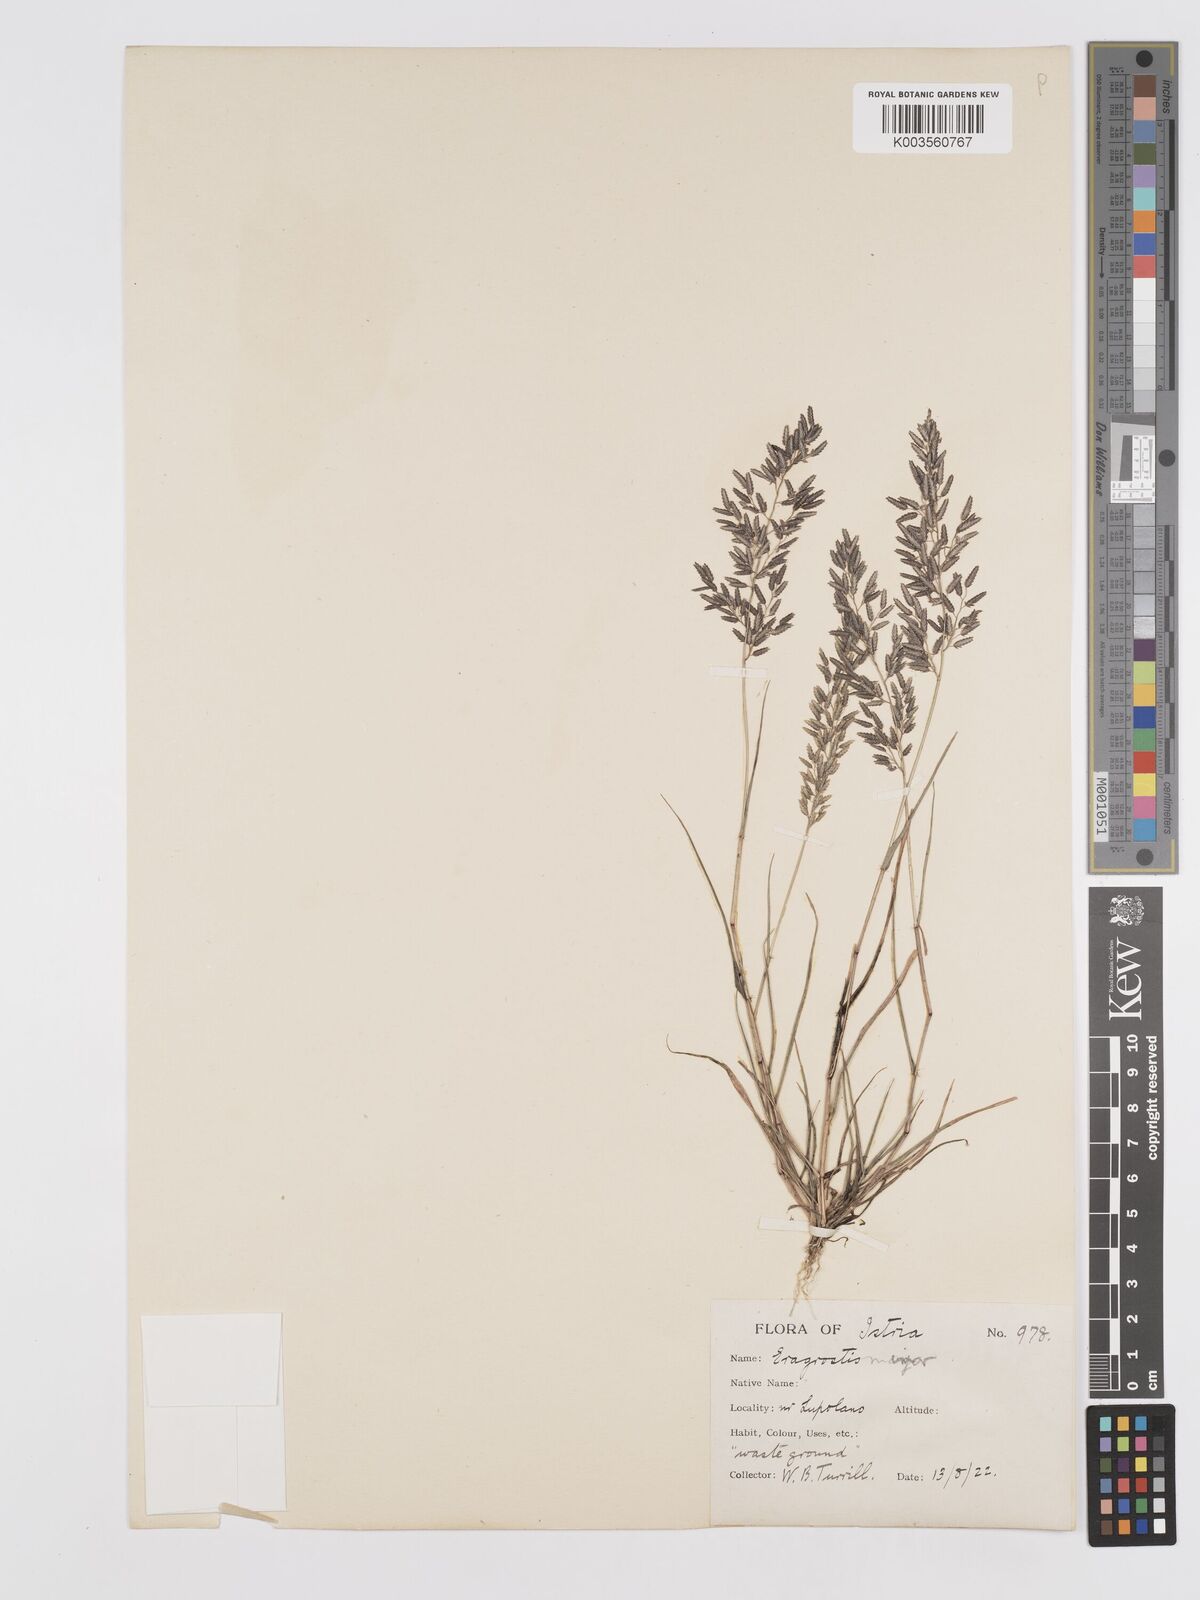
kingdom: Plantae
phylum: Tracheophyta
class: Liliopsida
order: Poales
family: Poaceae
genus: Eragrostis
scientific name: Eragrostis minor
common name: Small love-grass
